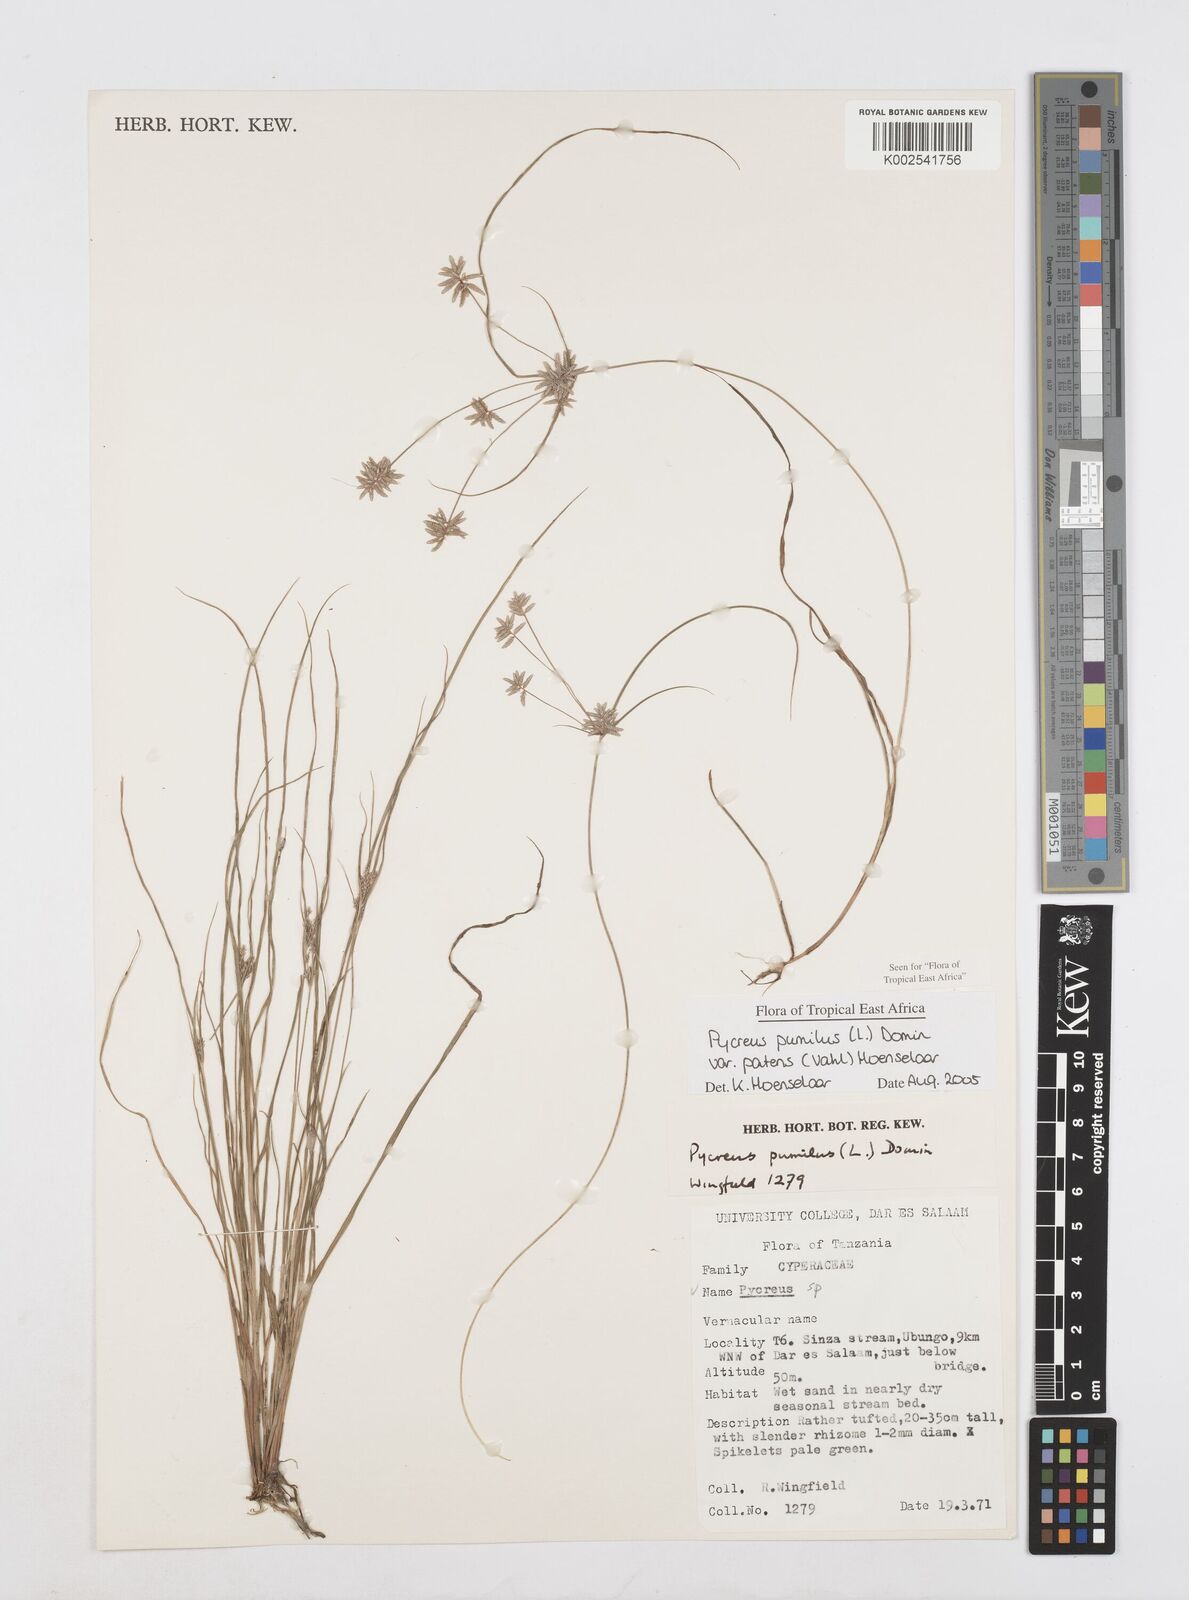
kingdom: Plantae
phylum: Tracheophyta
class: Liliopsida
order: Poales
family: Cyperaceae
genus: Cyperus
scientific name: Cyperus pumilus
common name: Low flatsedge
